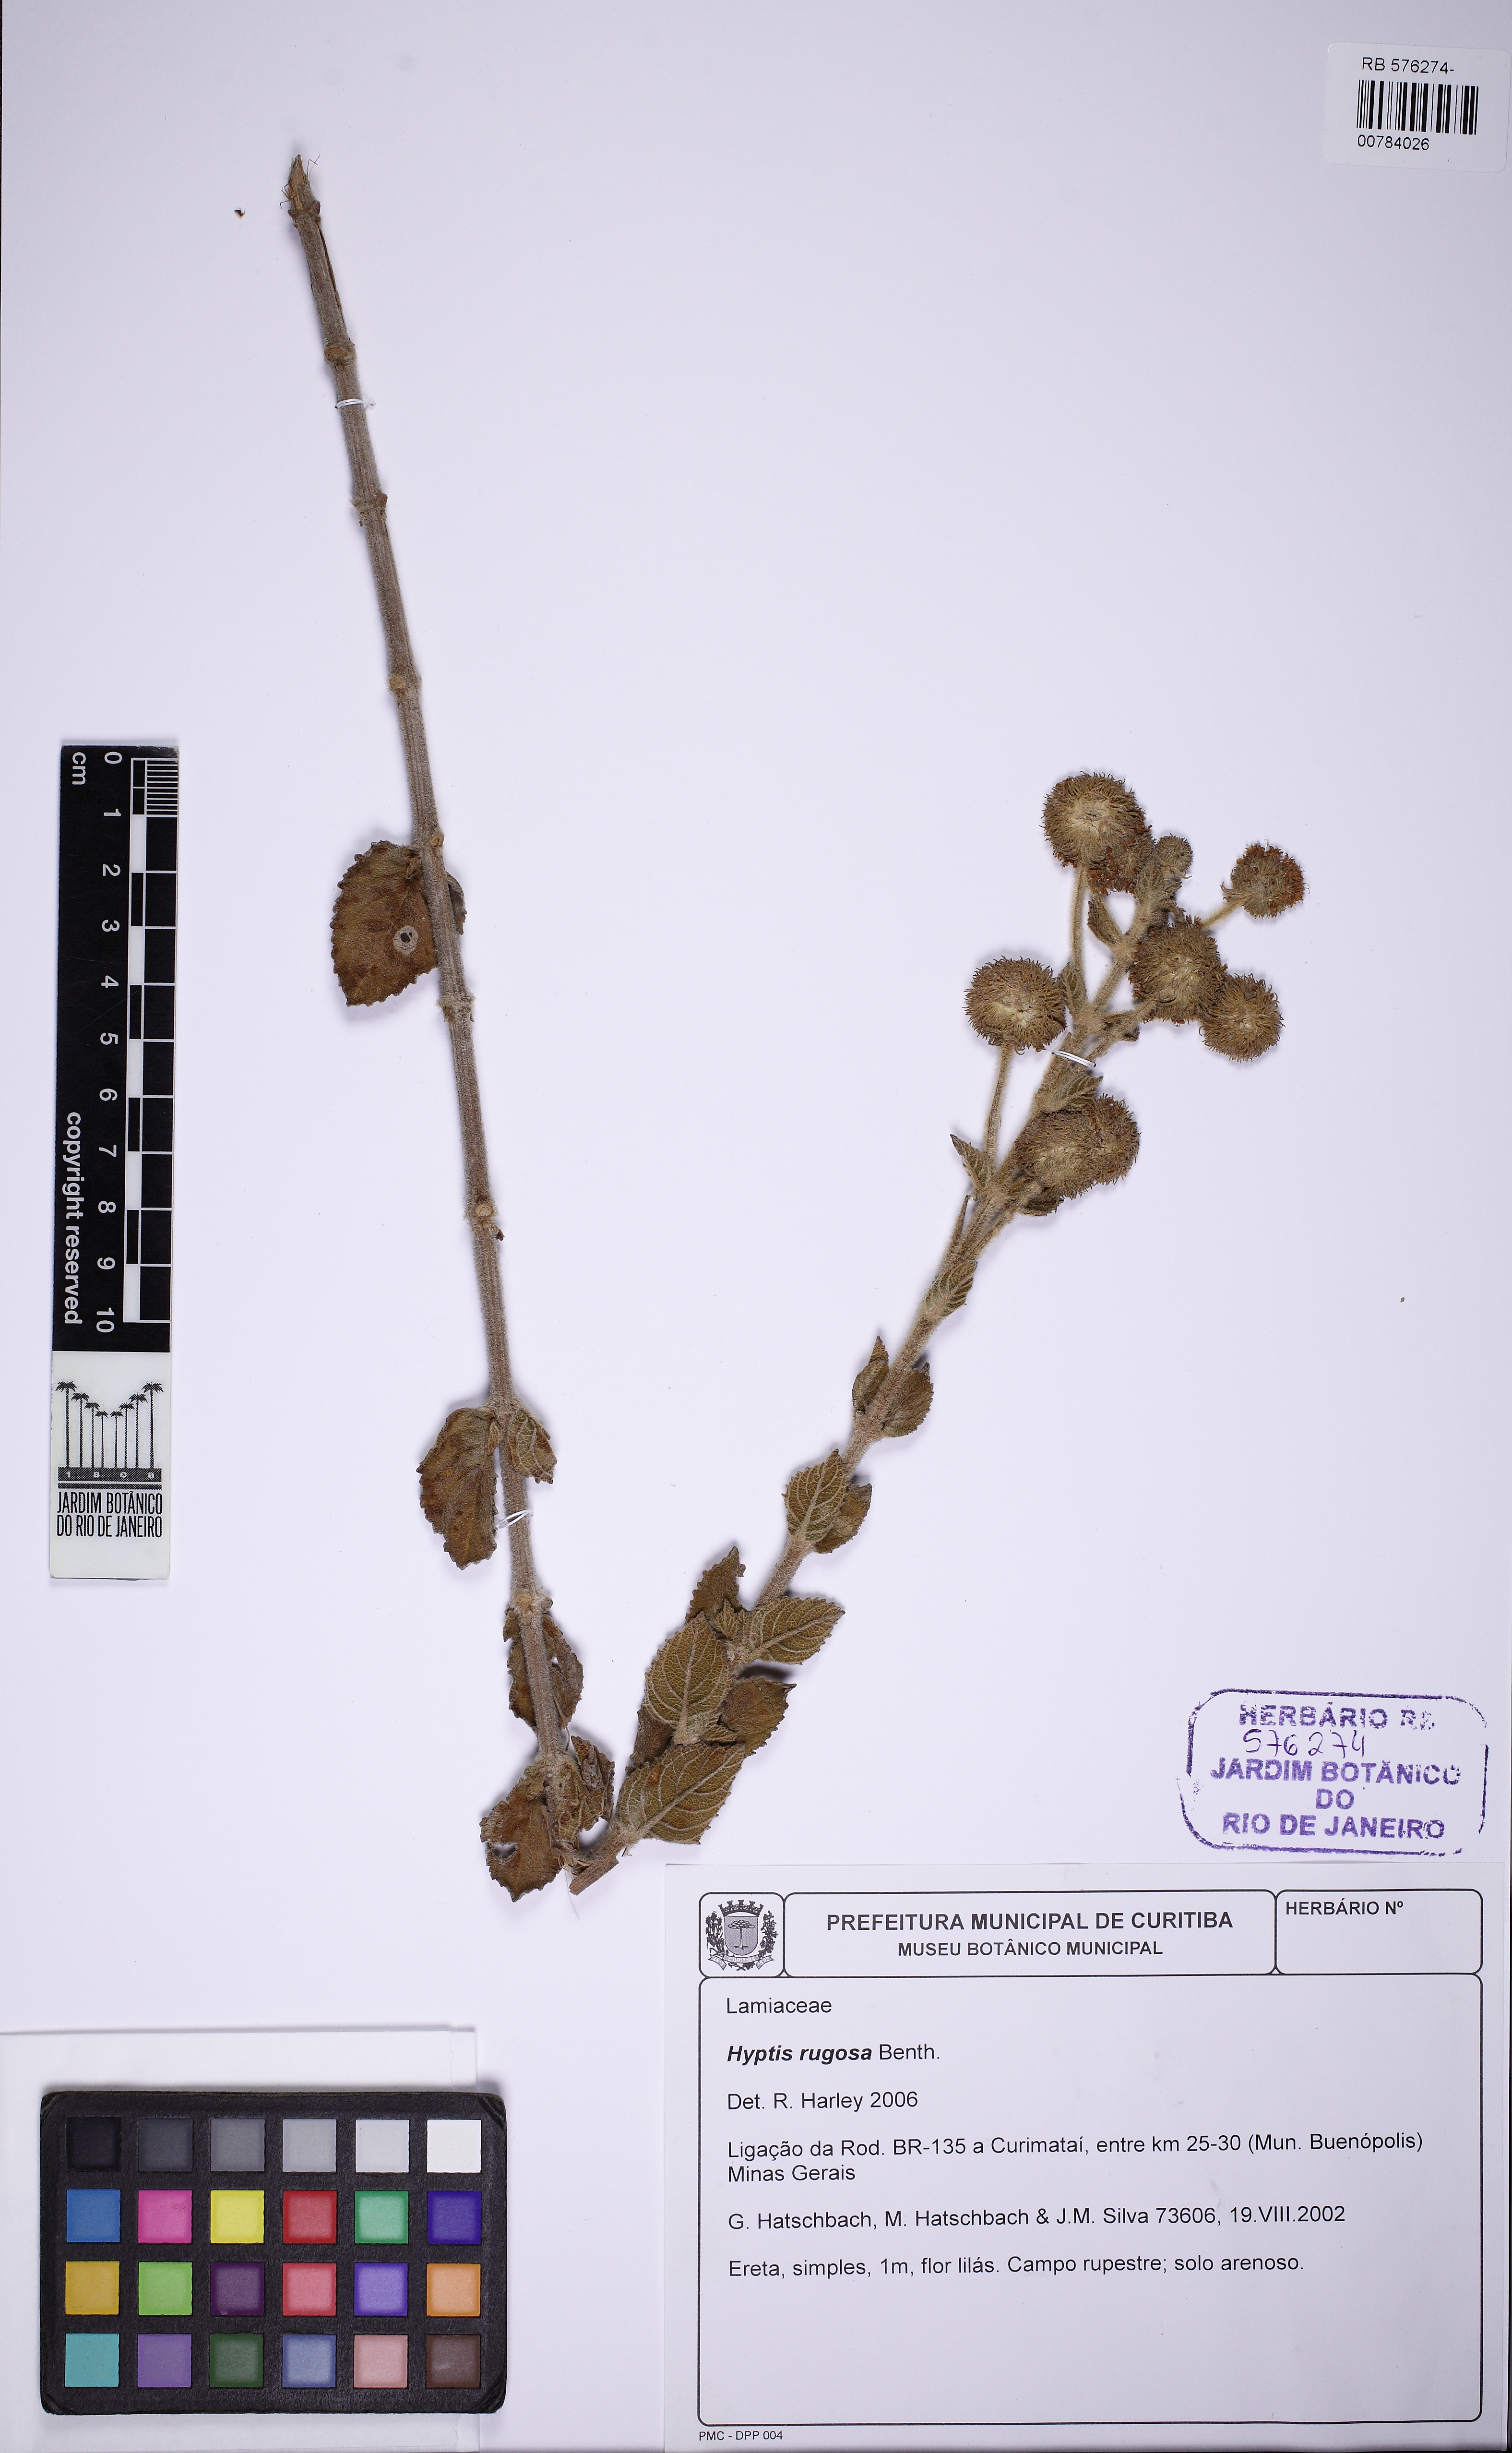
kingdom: Plantae
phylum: Tracheophyta
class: Magnoliopsida
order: Lamiales
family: Lamiaceae
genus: Cyanocephalus
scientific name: Cyanocephalus rugosus
